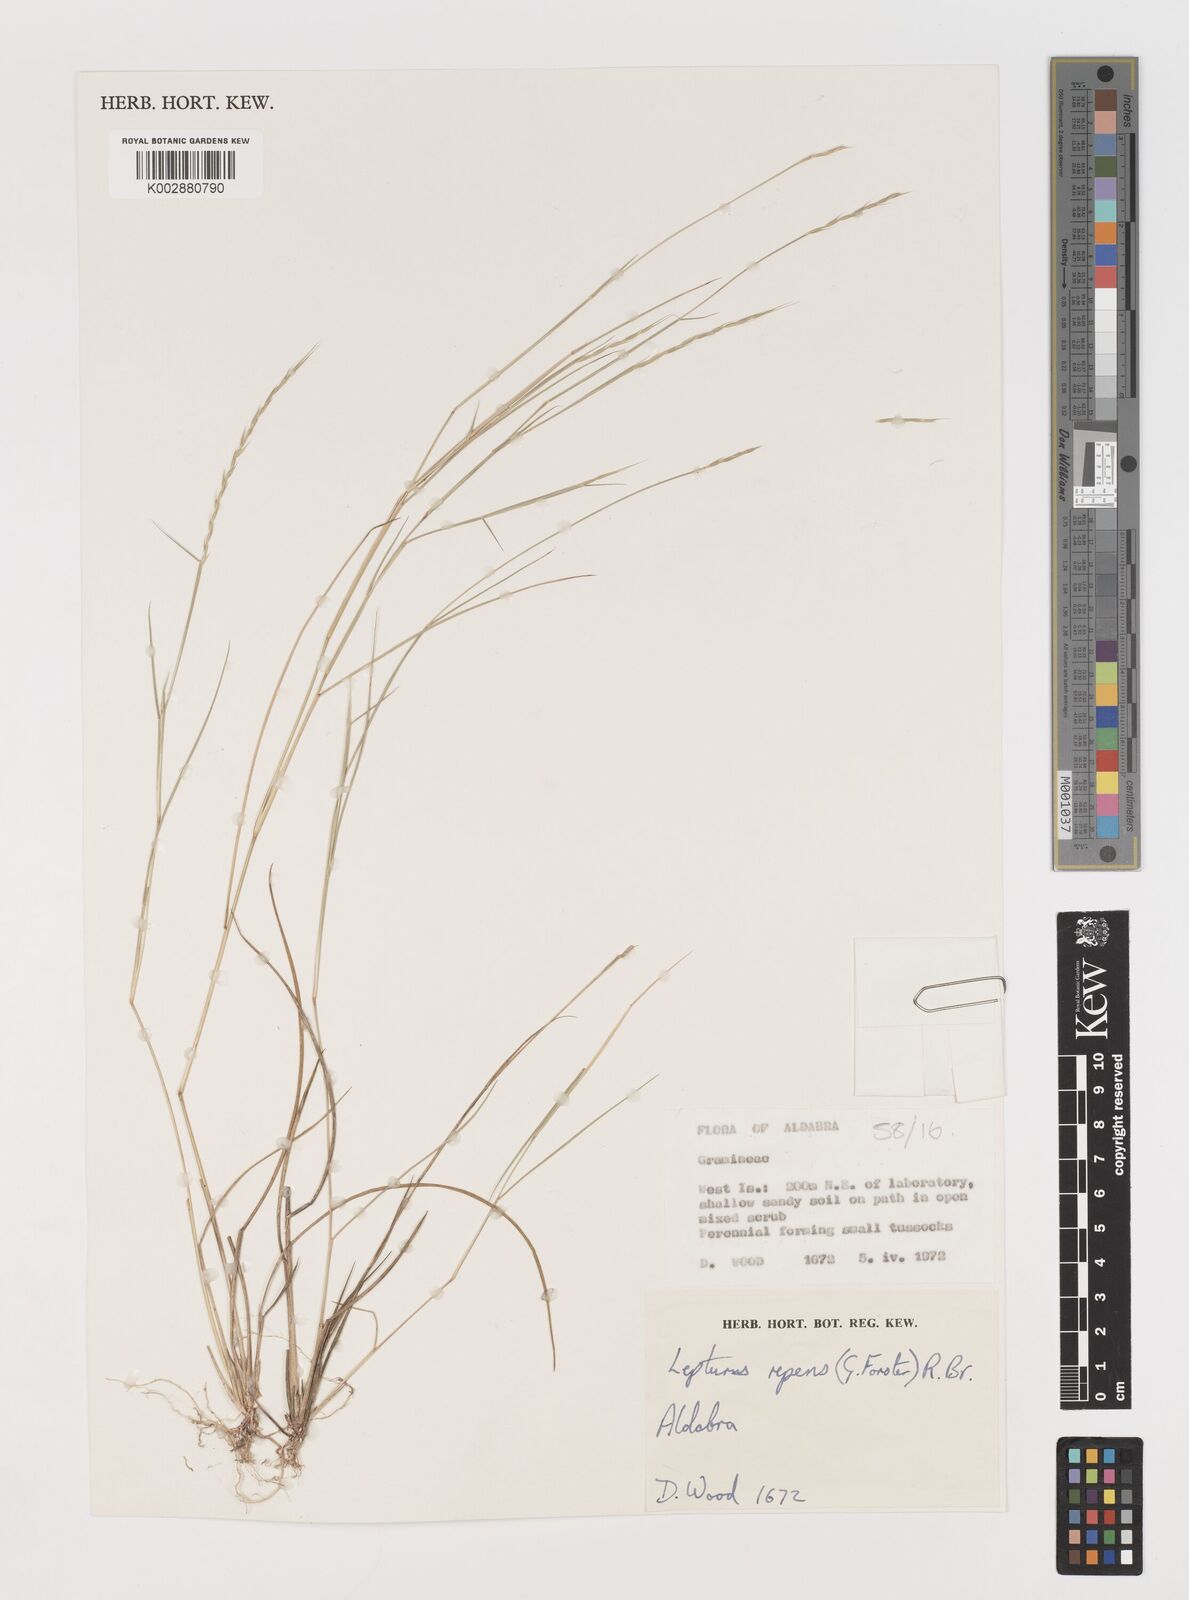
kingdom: Plantae
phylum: Tracheophyta
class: Liliopsida
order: Poales
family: Poaceae
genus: Lepturus
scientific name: Lepturus repens
